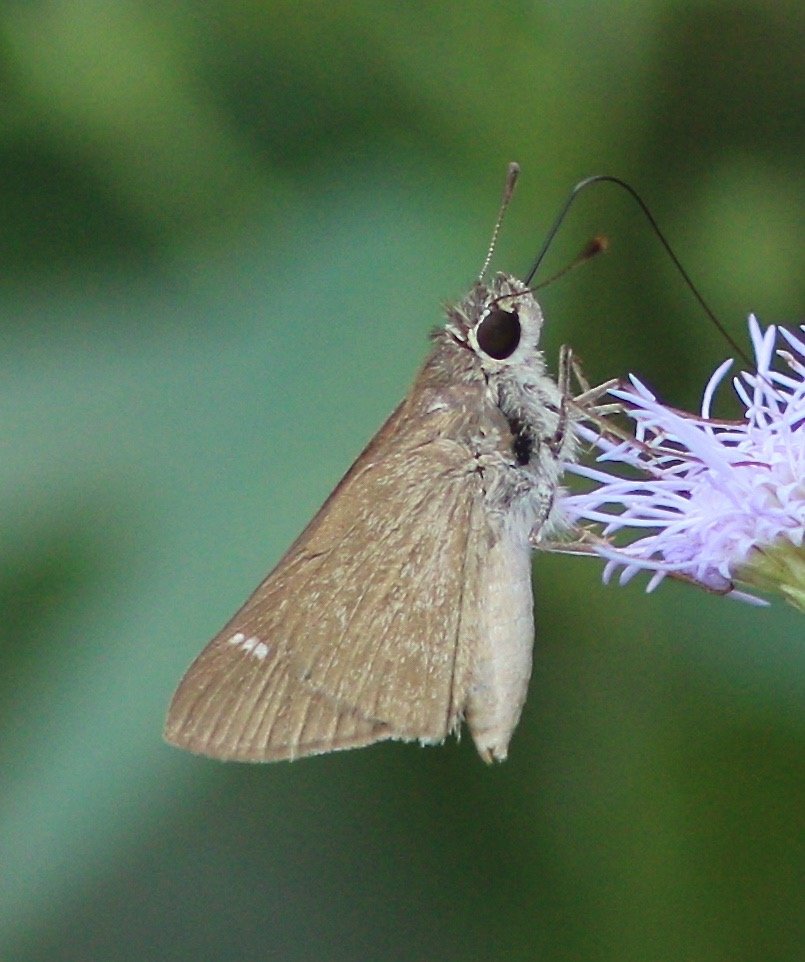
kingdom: Animalia
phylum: Arthropoda
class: Insecta
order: Lepidoptera
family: Hesperiidae
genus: Lerodea
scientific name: Lerodea eufala
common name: Eufala Skipper
